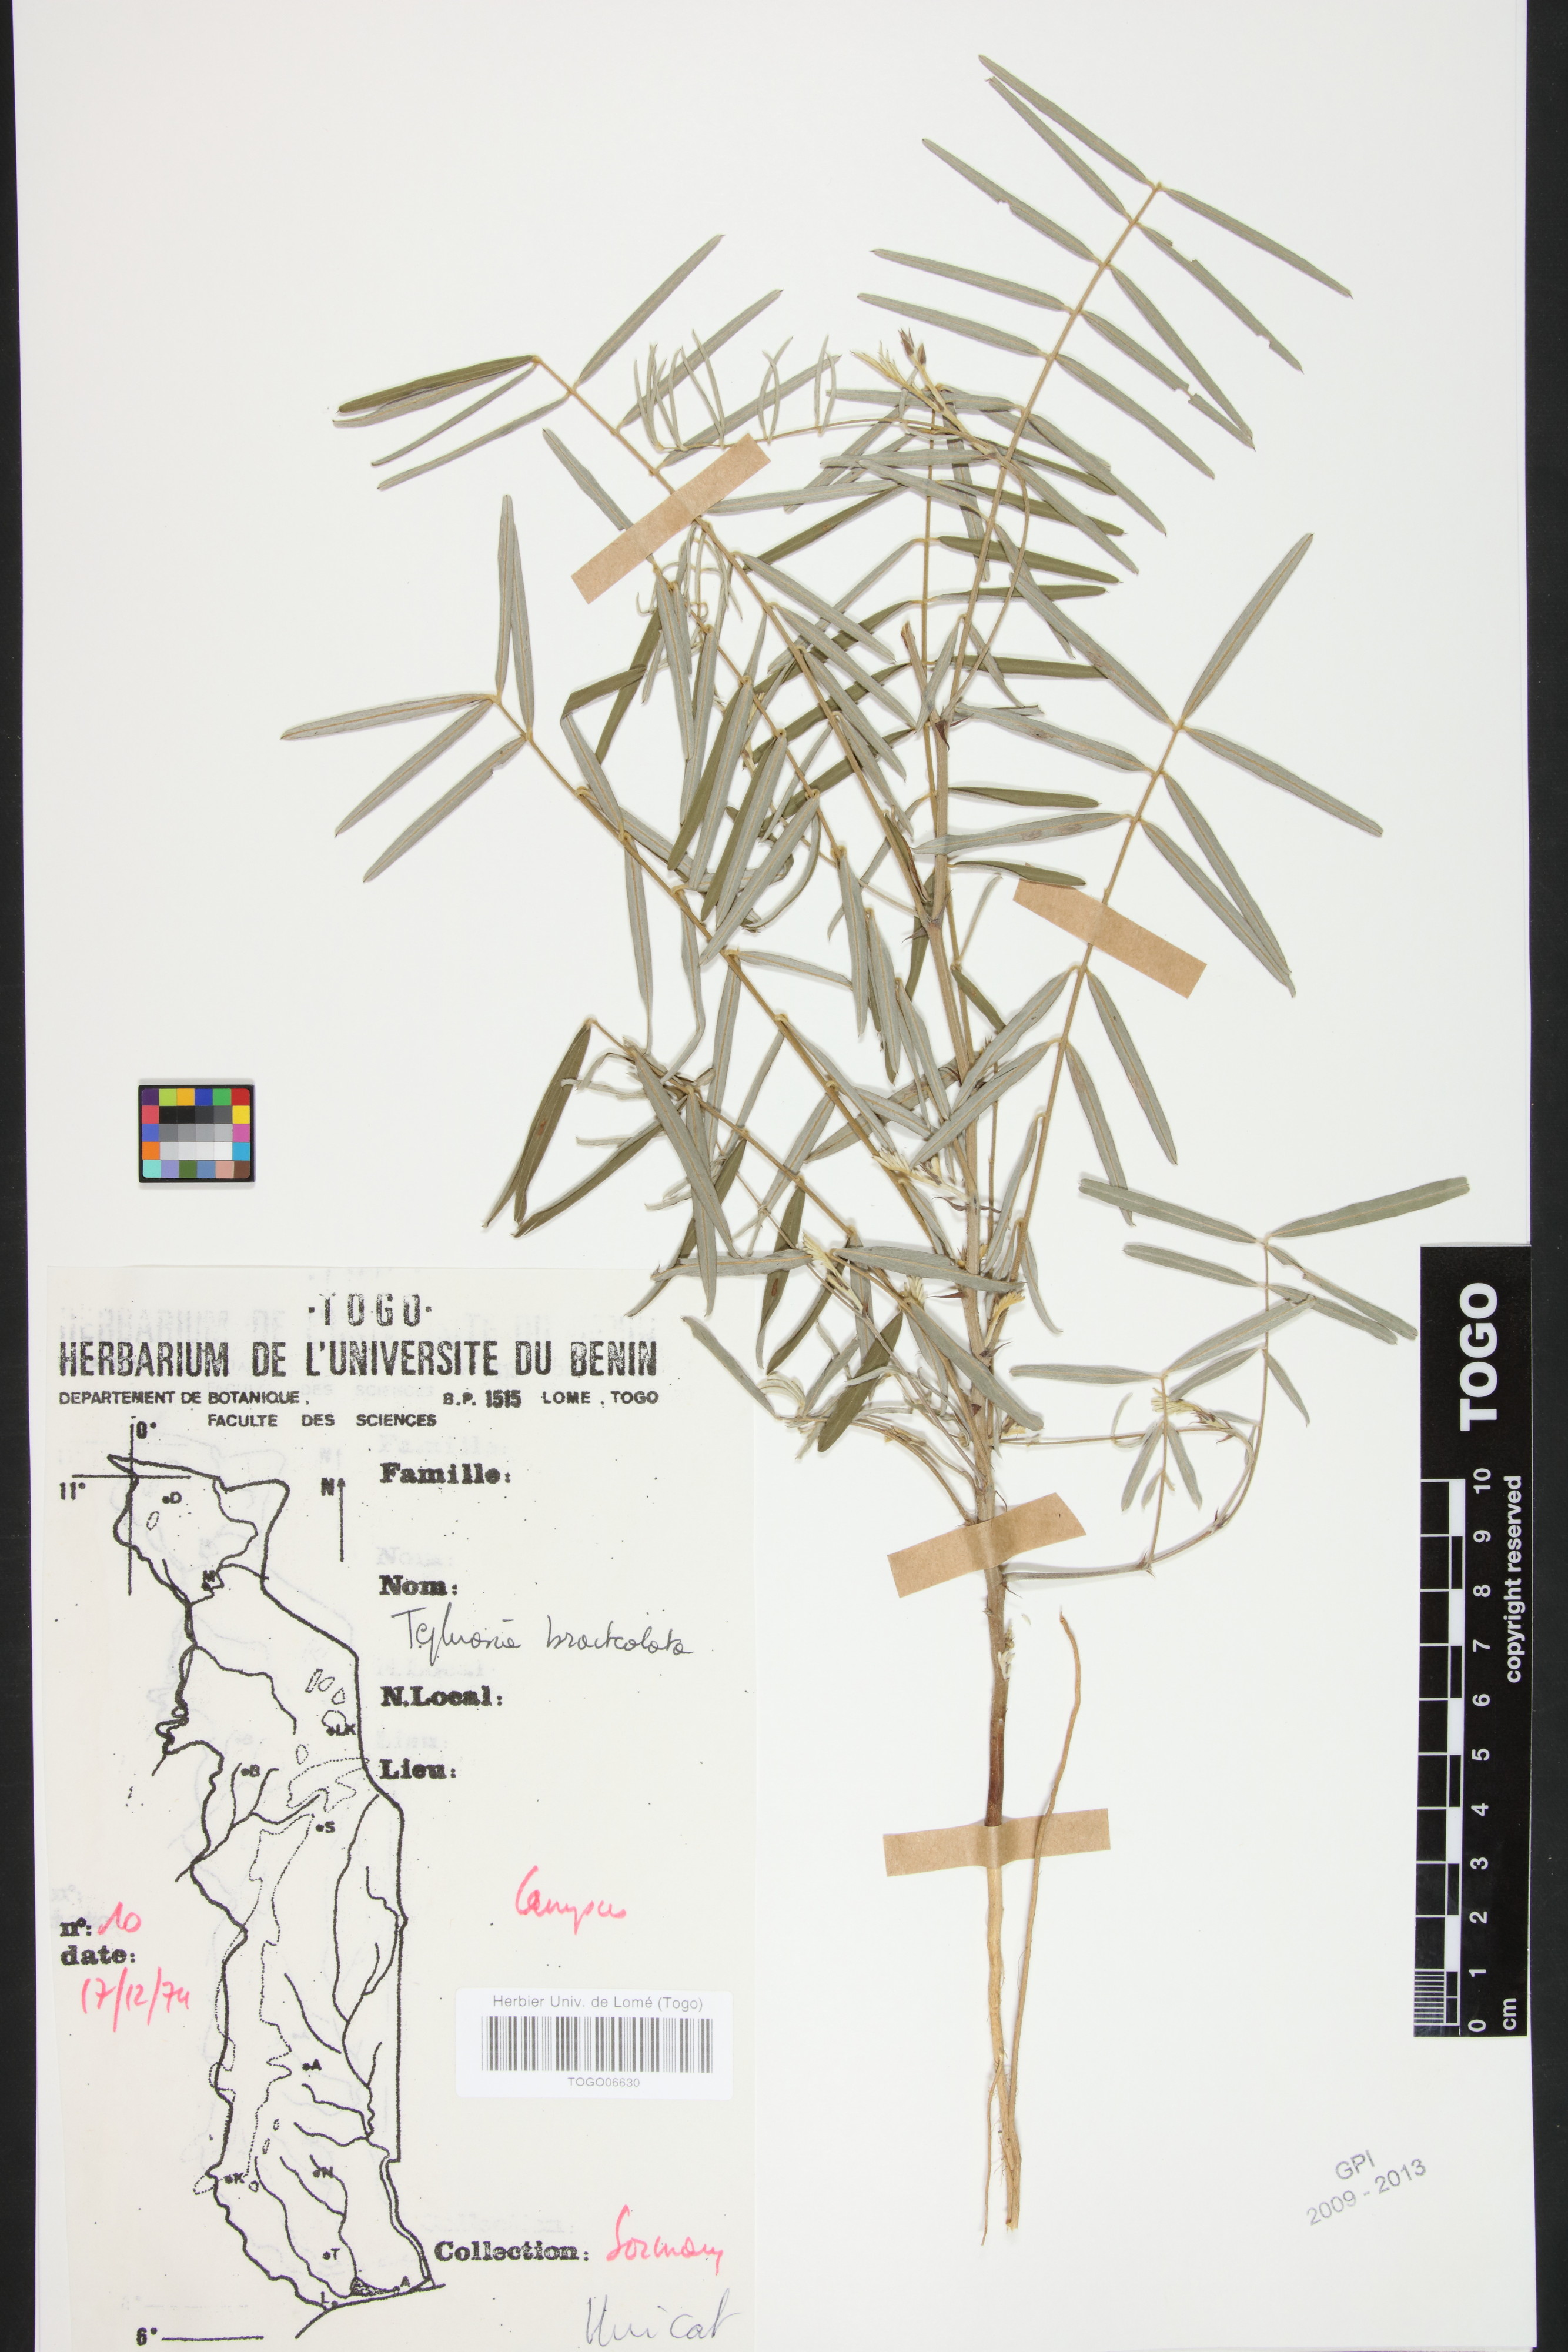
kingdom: Plantae
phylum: Tracheophyta
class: Magnoliopsida
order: Fabales
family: Fabaceae
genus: Tephrosia
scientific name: Tephrosia bracteolata
